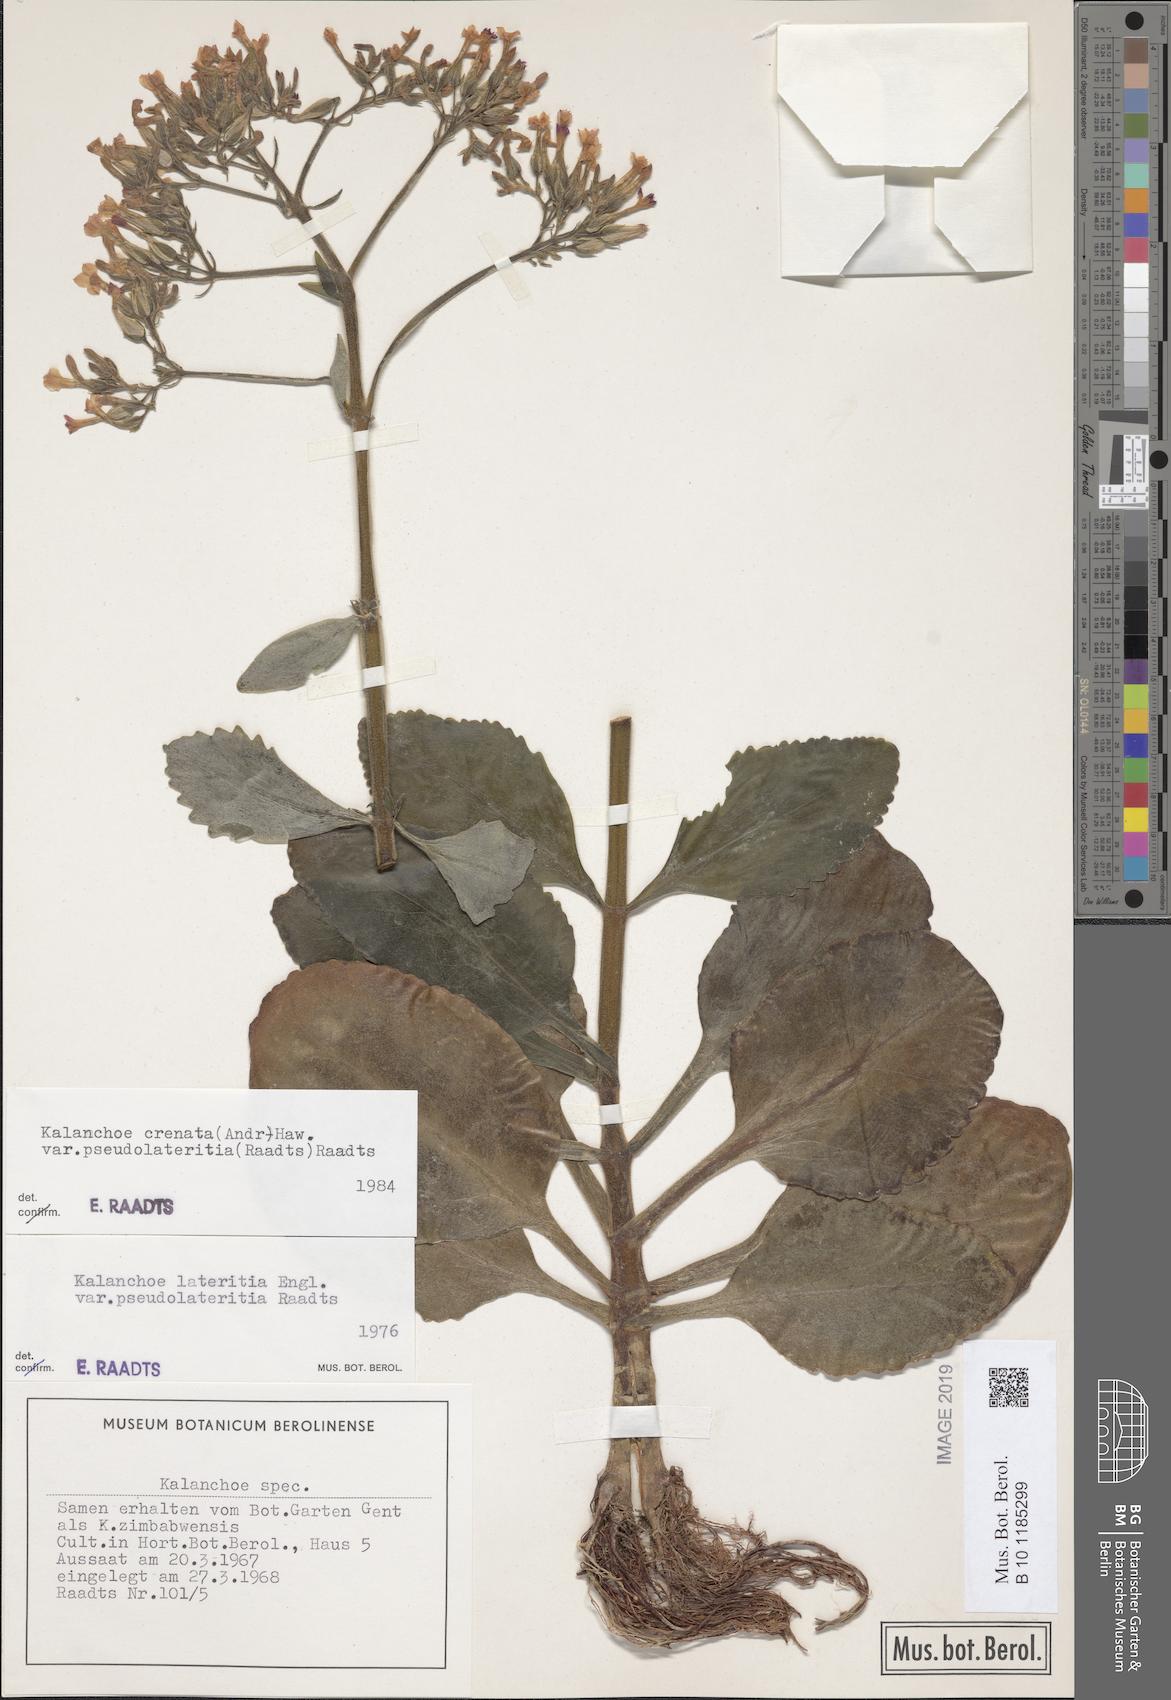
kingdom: Plantae
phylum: Tracheophyta
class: Magnoliopsida
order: Saxifragales
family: Crassulaceae
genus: Kalanchoe
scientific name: Kalanchoe lateritia
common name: Kalanchoe
